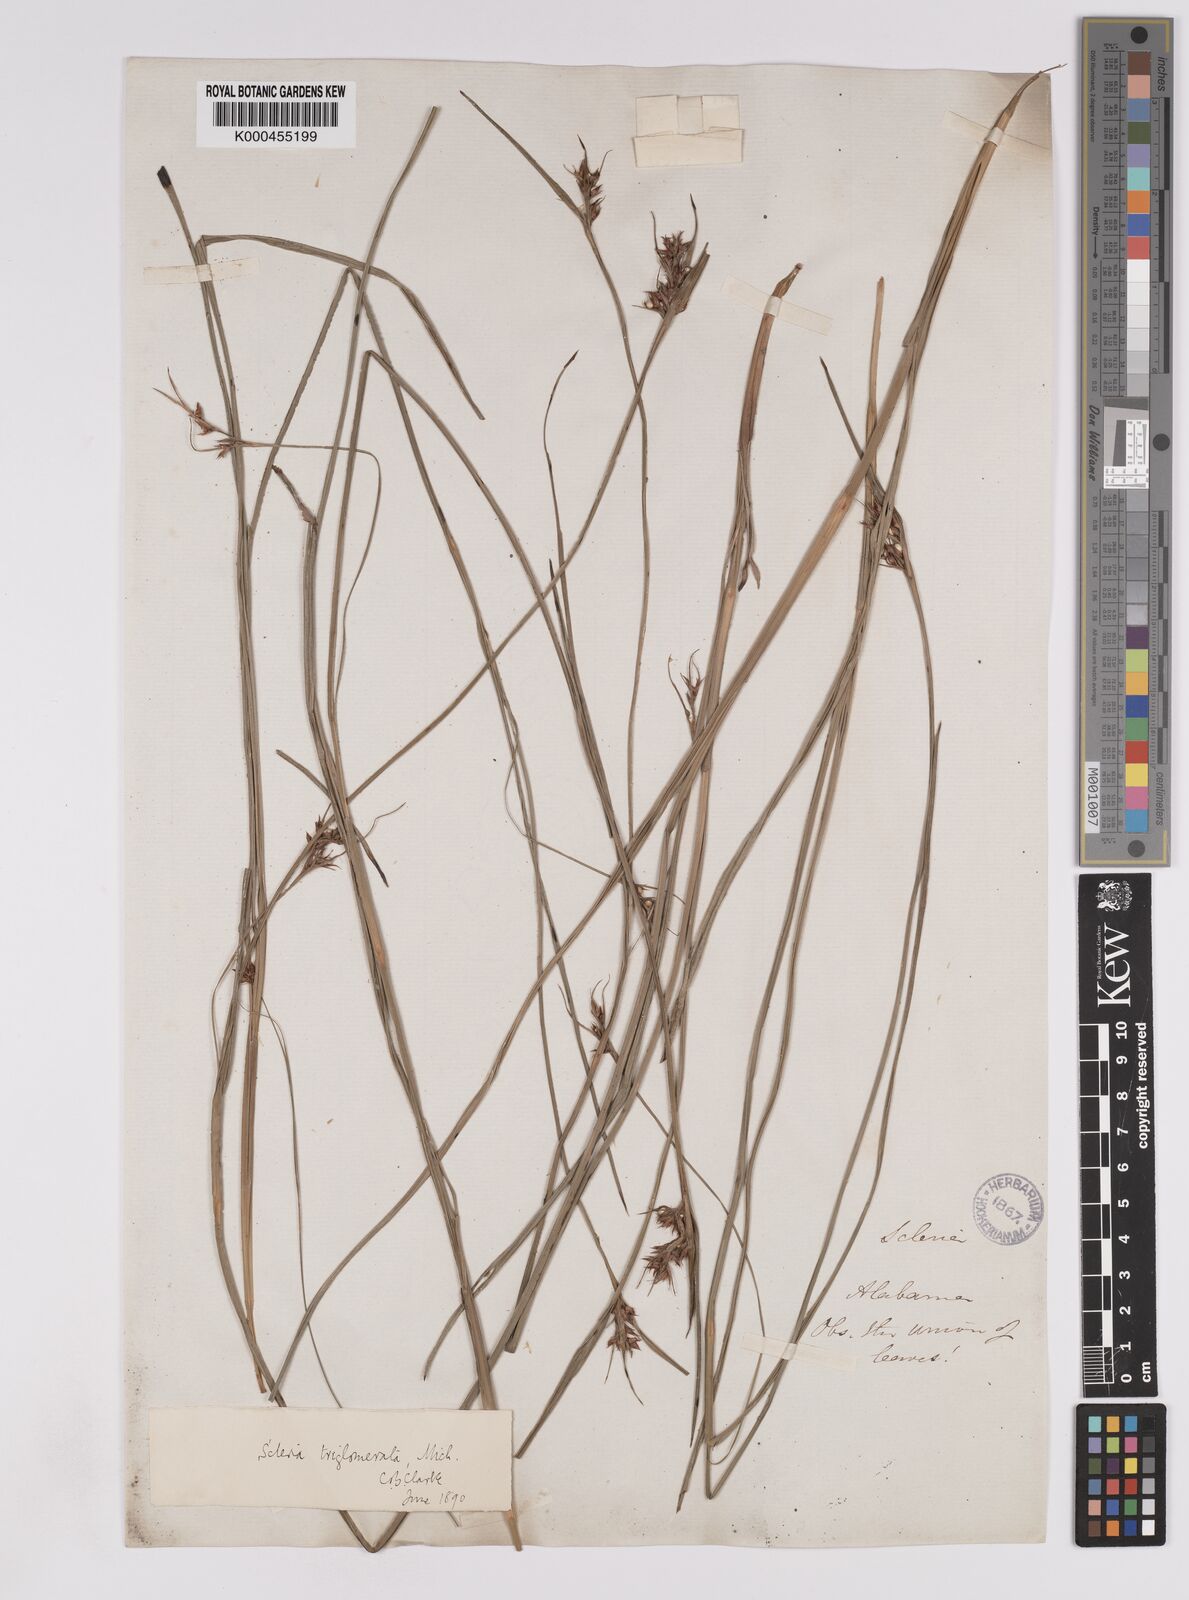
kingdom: Plantae
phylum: Tracheophyta
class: Liliopsida
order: Poales
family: Cyperaceae
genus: Scleria
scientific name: Scleria triglomerata
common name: Whip nutrush
